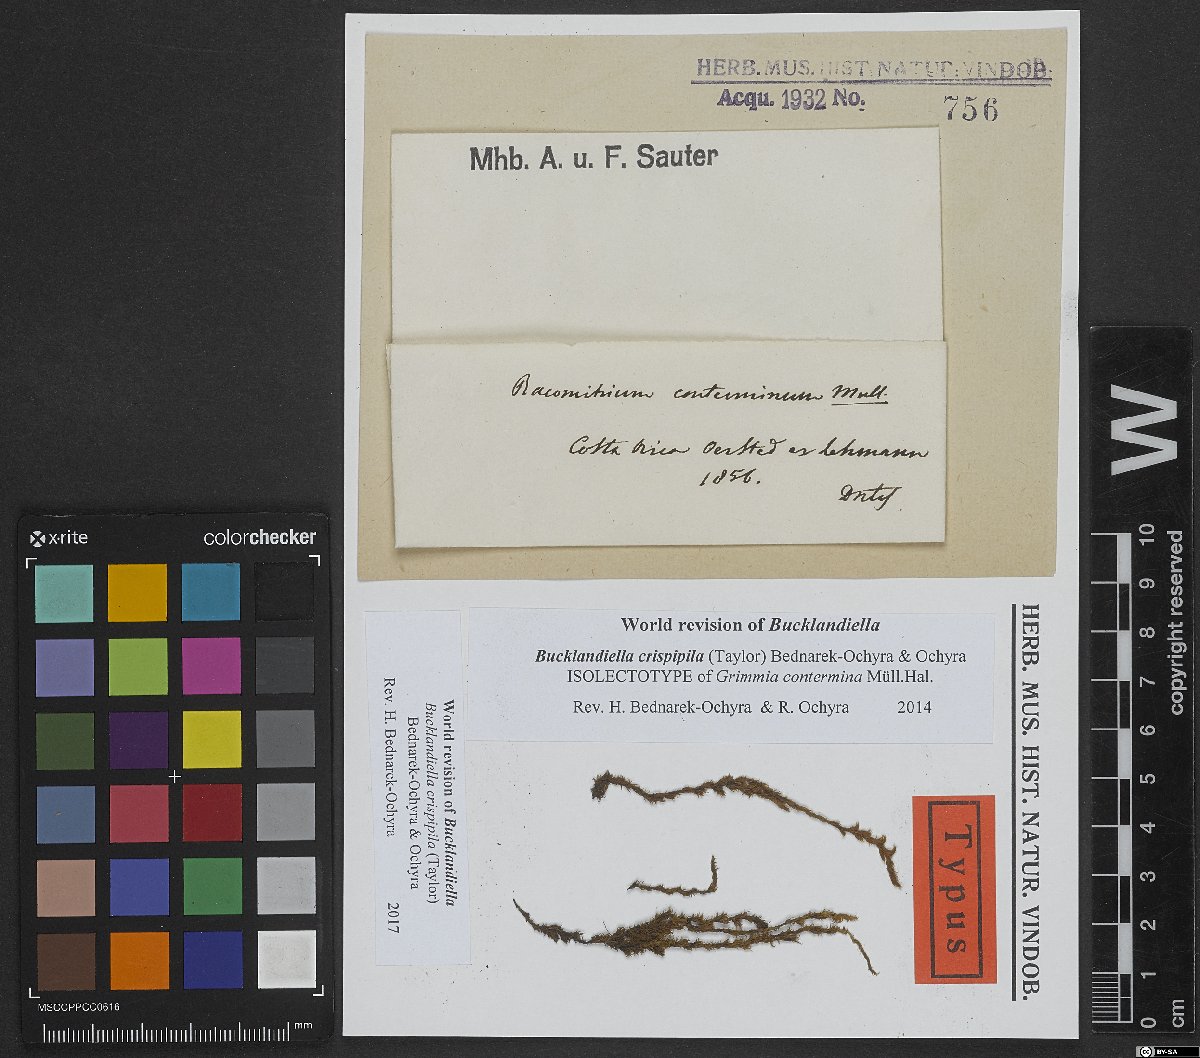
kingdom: Plantae
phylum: Bryophyta
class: Bryopsida
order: Grimmiales
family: Grimmiaceae
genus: Bucklandiella
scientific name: Bucklandiella crispipila
